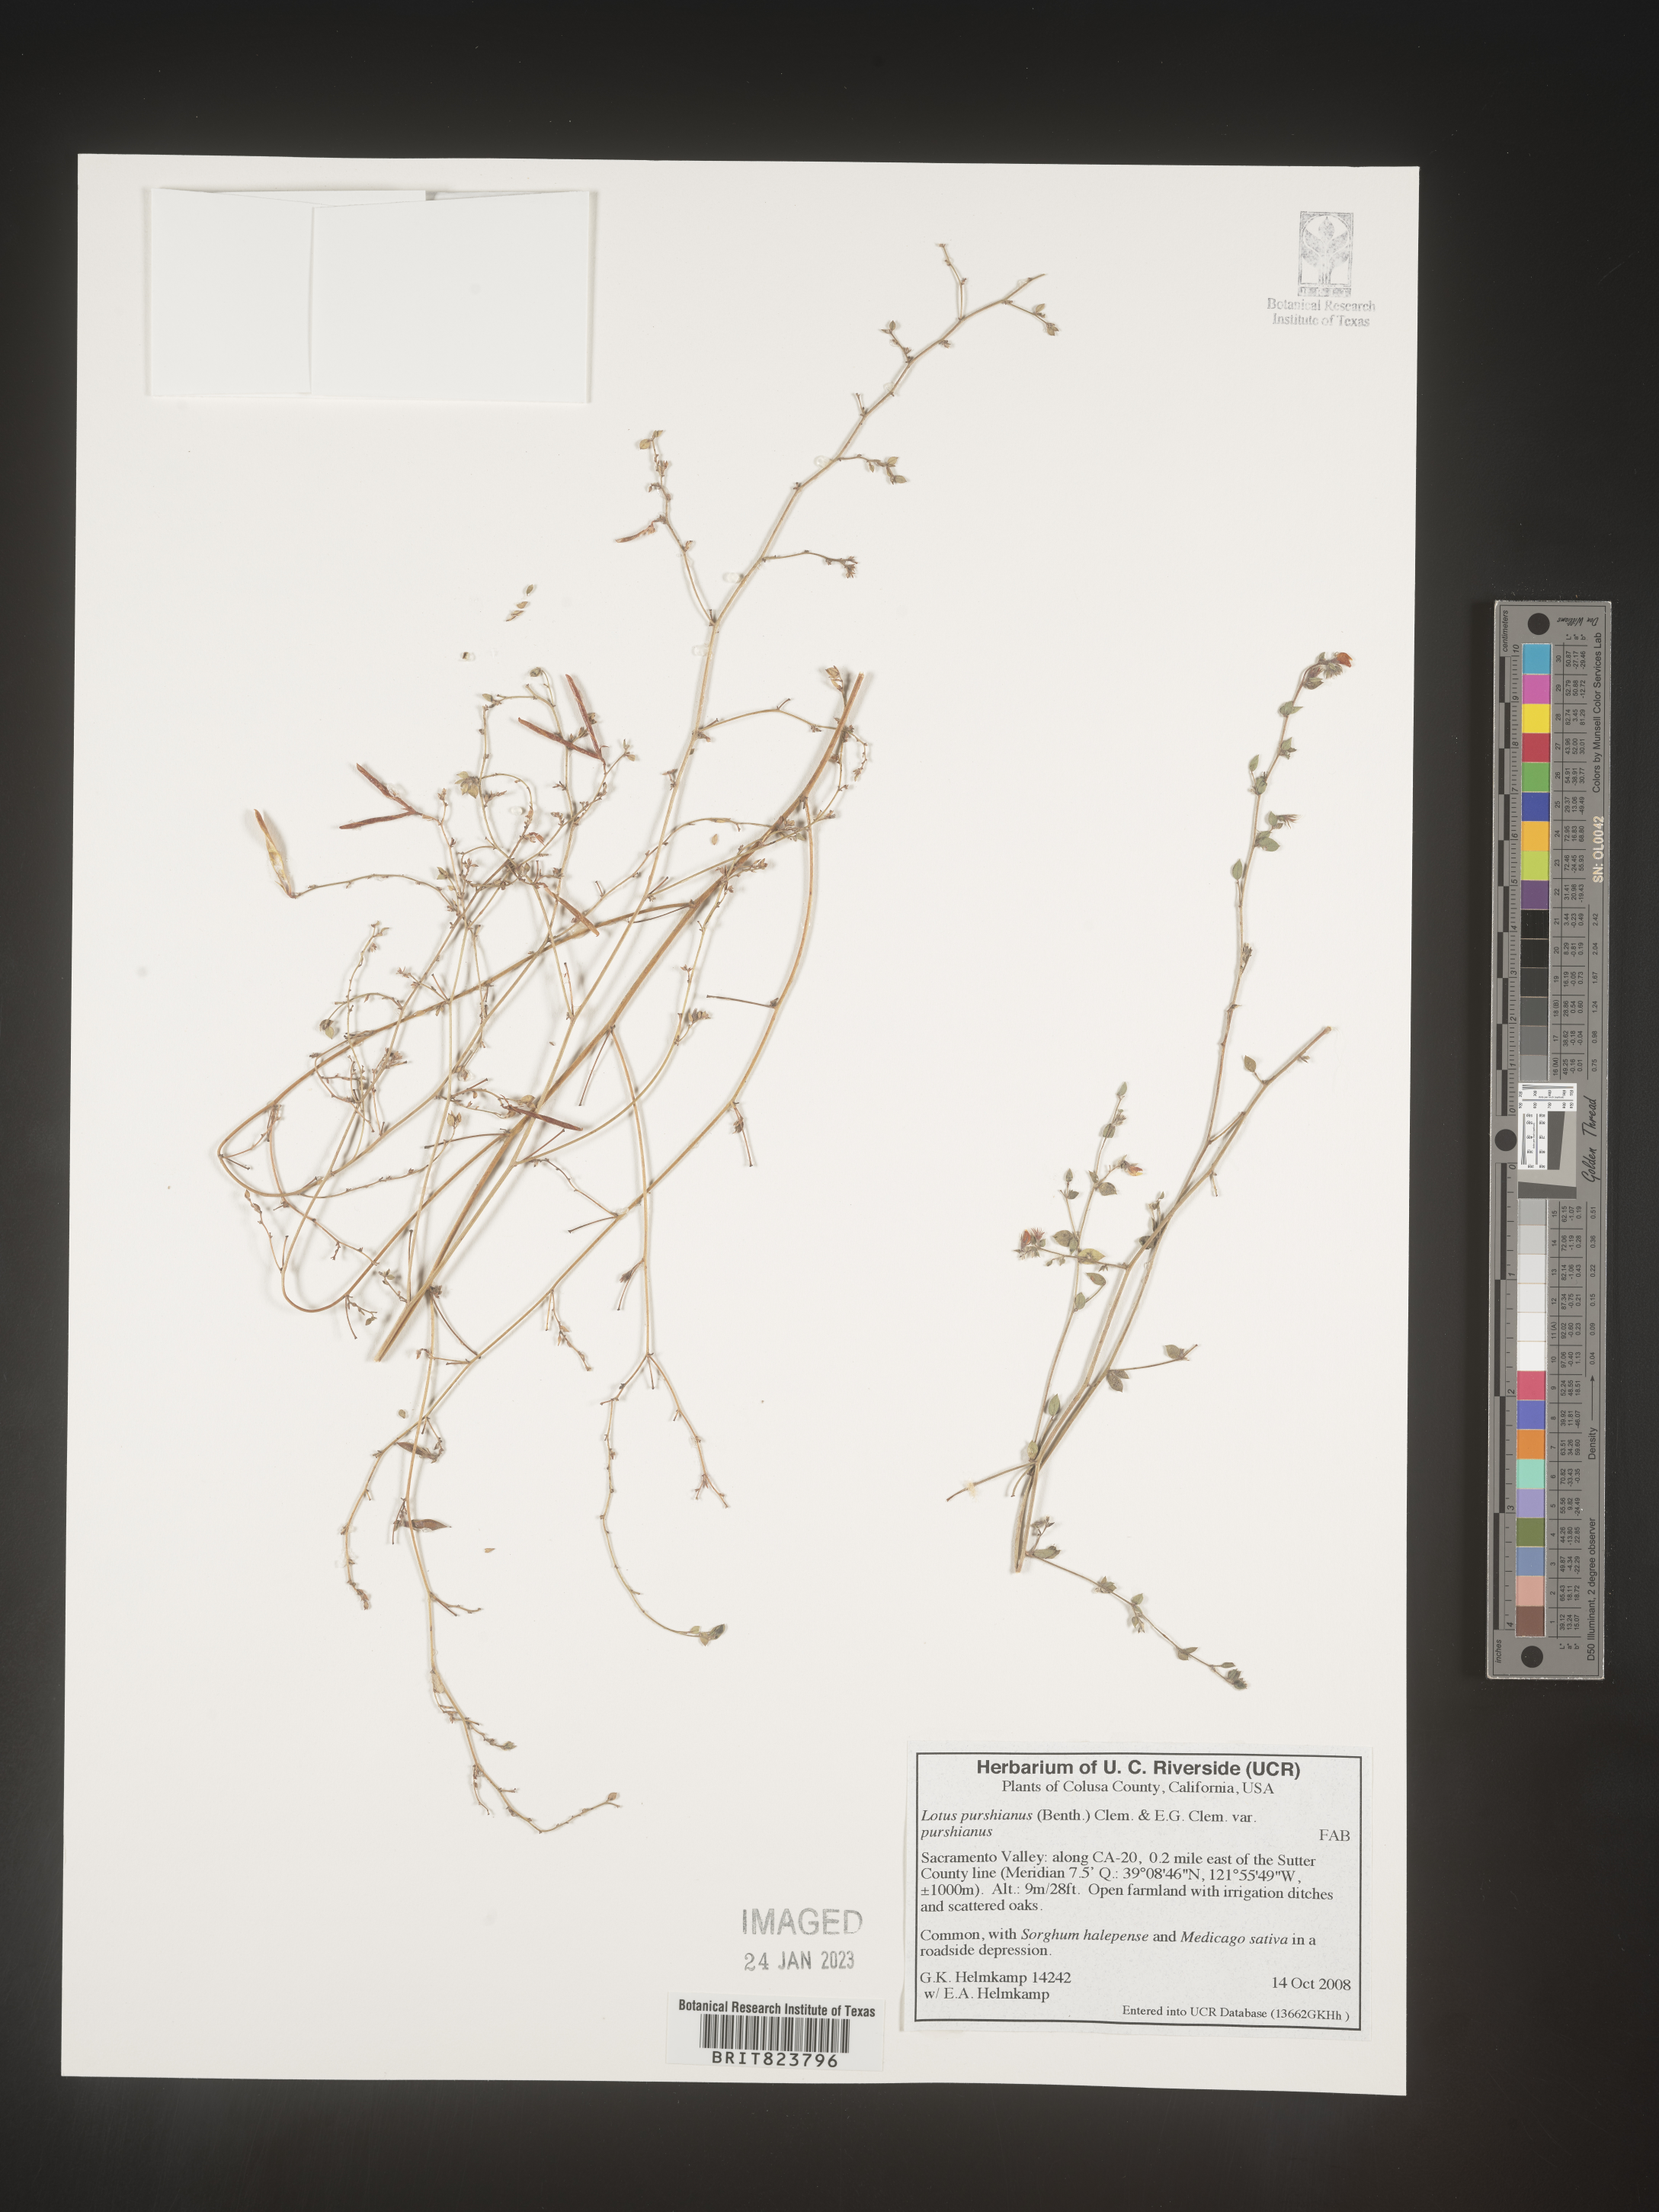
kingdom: Plantae
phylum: Tracheophyta
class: Magnoliopsida
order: Fabales
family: Fabaceae
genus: Acmispon
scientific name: Acmispon americanus
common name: American bird's-foot trefoil
